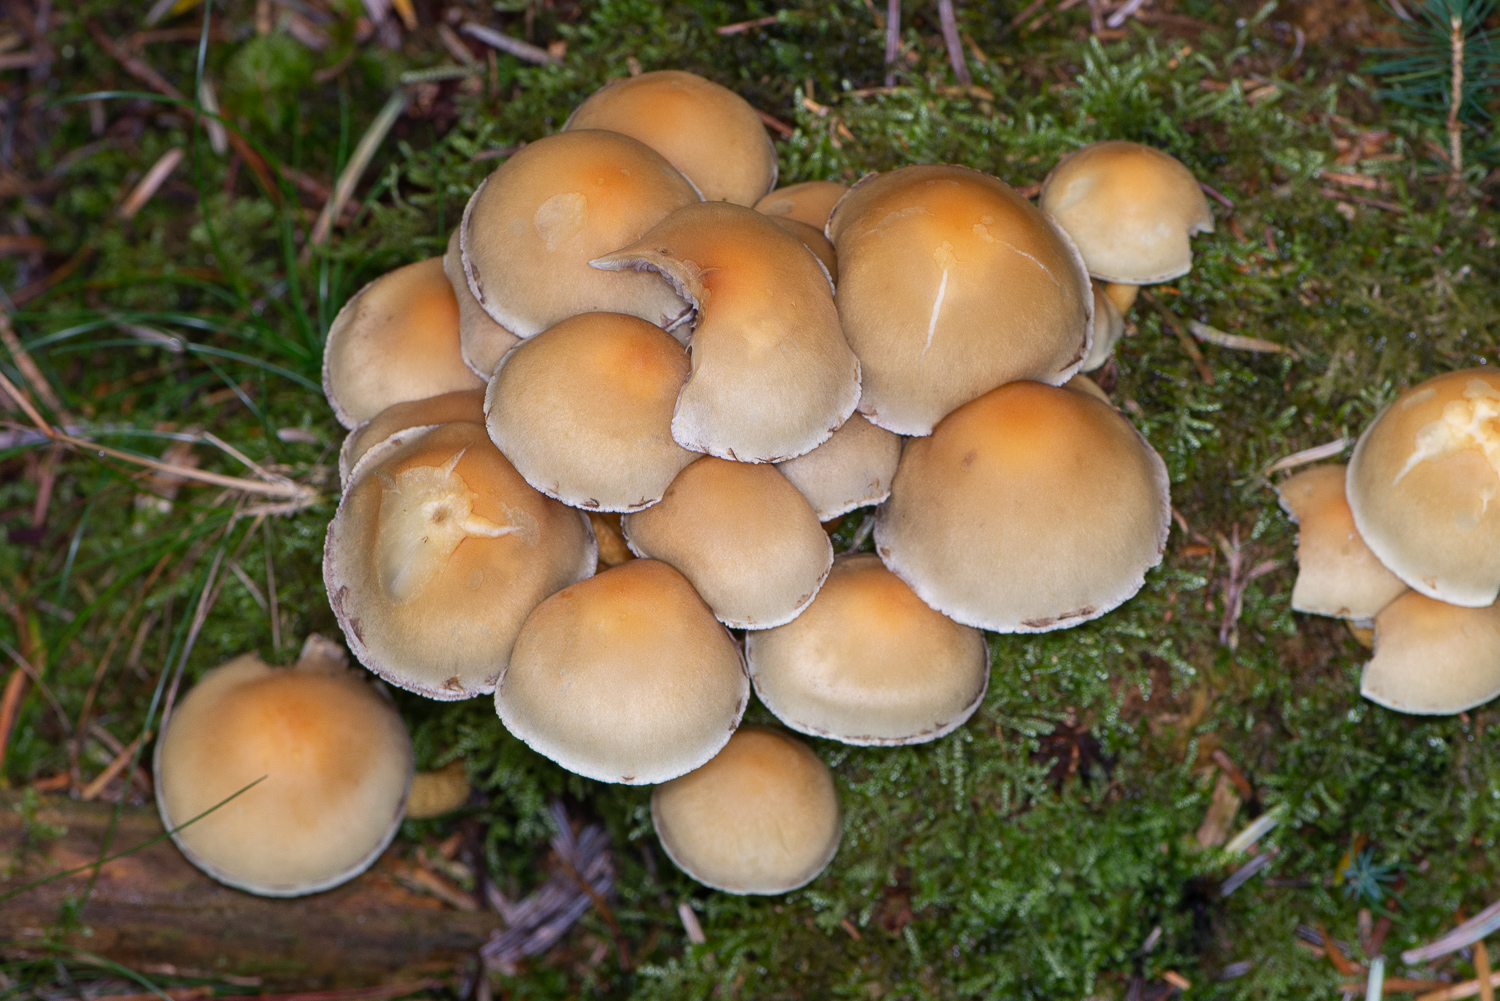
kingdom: Fungi
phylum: Basidiomycota
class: Agaricomycetes
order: Agaricales
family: Strophariaceae
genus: Hypholoma
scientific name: Hypholoma capnoides
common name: gran-svovlhat
